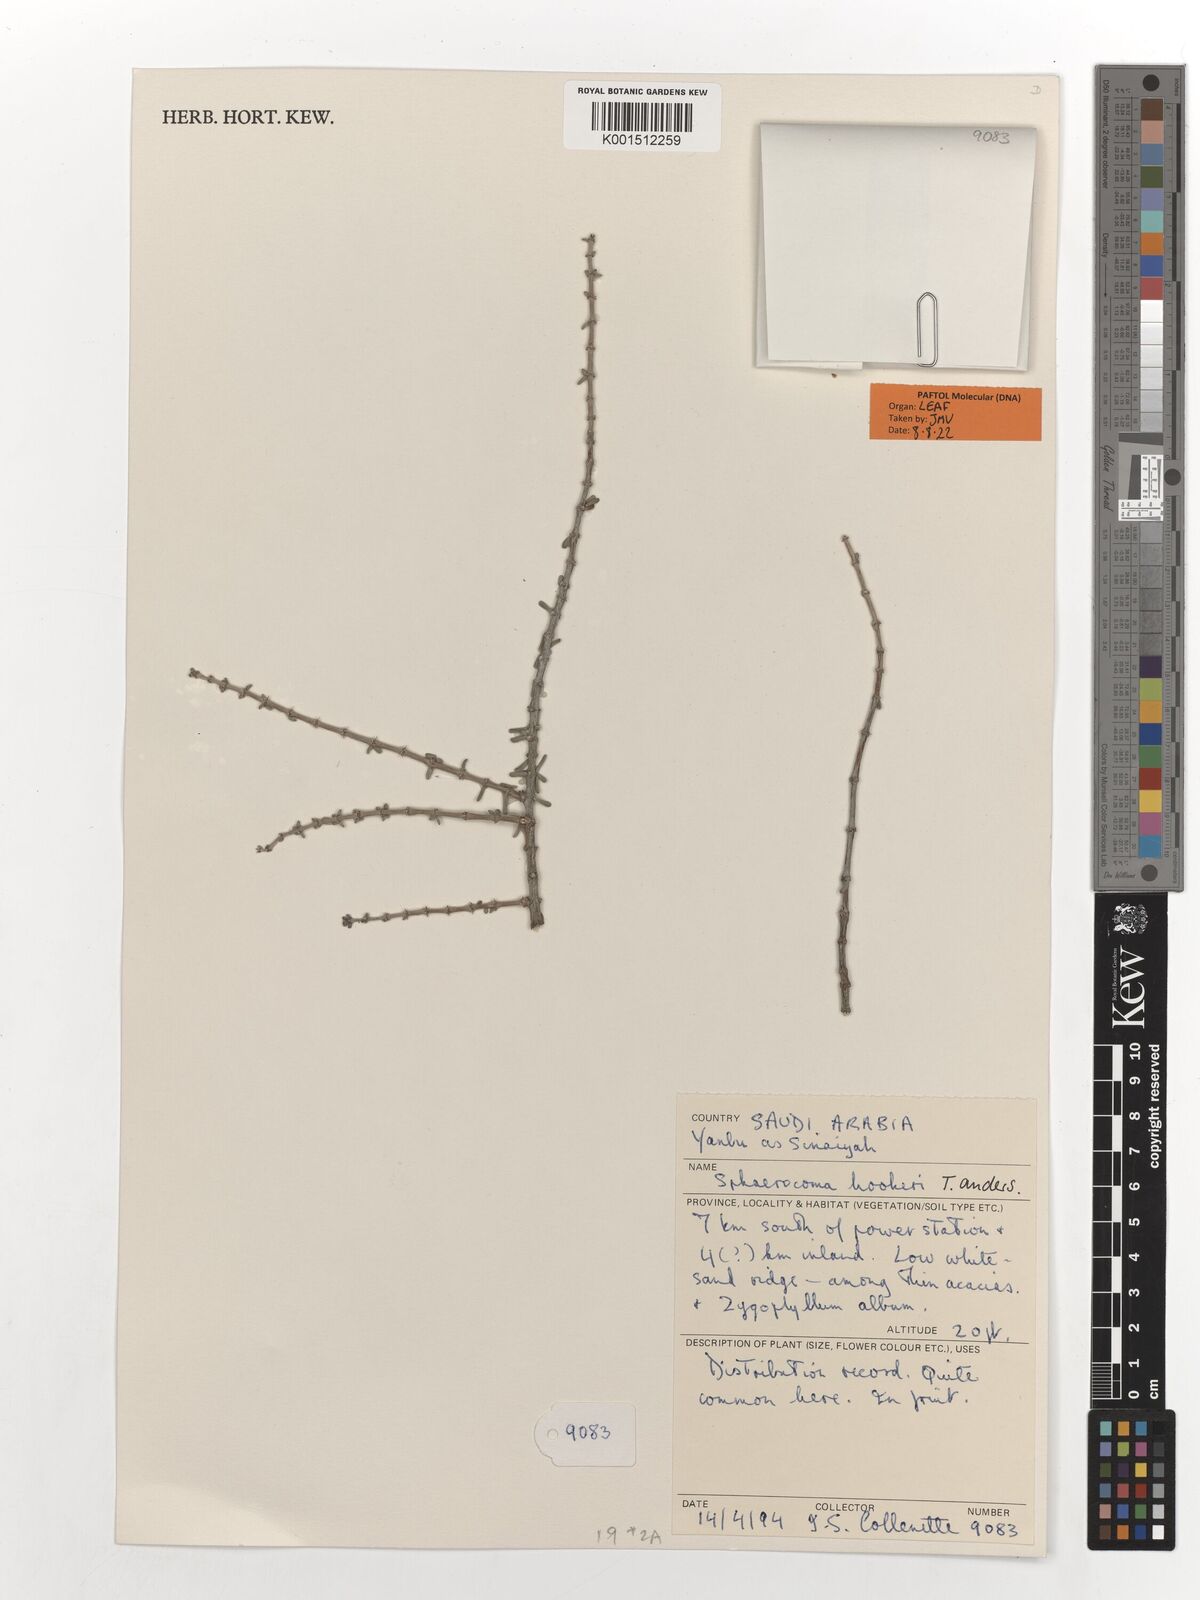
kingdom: Plantae
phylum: Tracheophyta
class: Magnoliopsida
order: Caryophyllales
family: Caryophyllaceae
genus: Sphaerocoma
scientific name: Sphaerocoma hookeri
